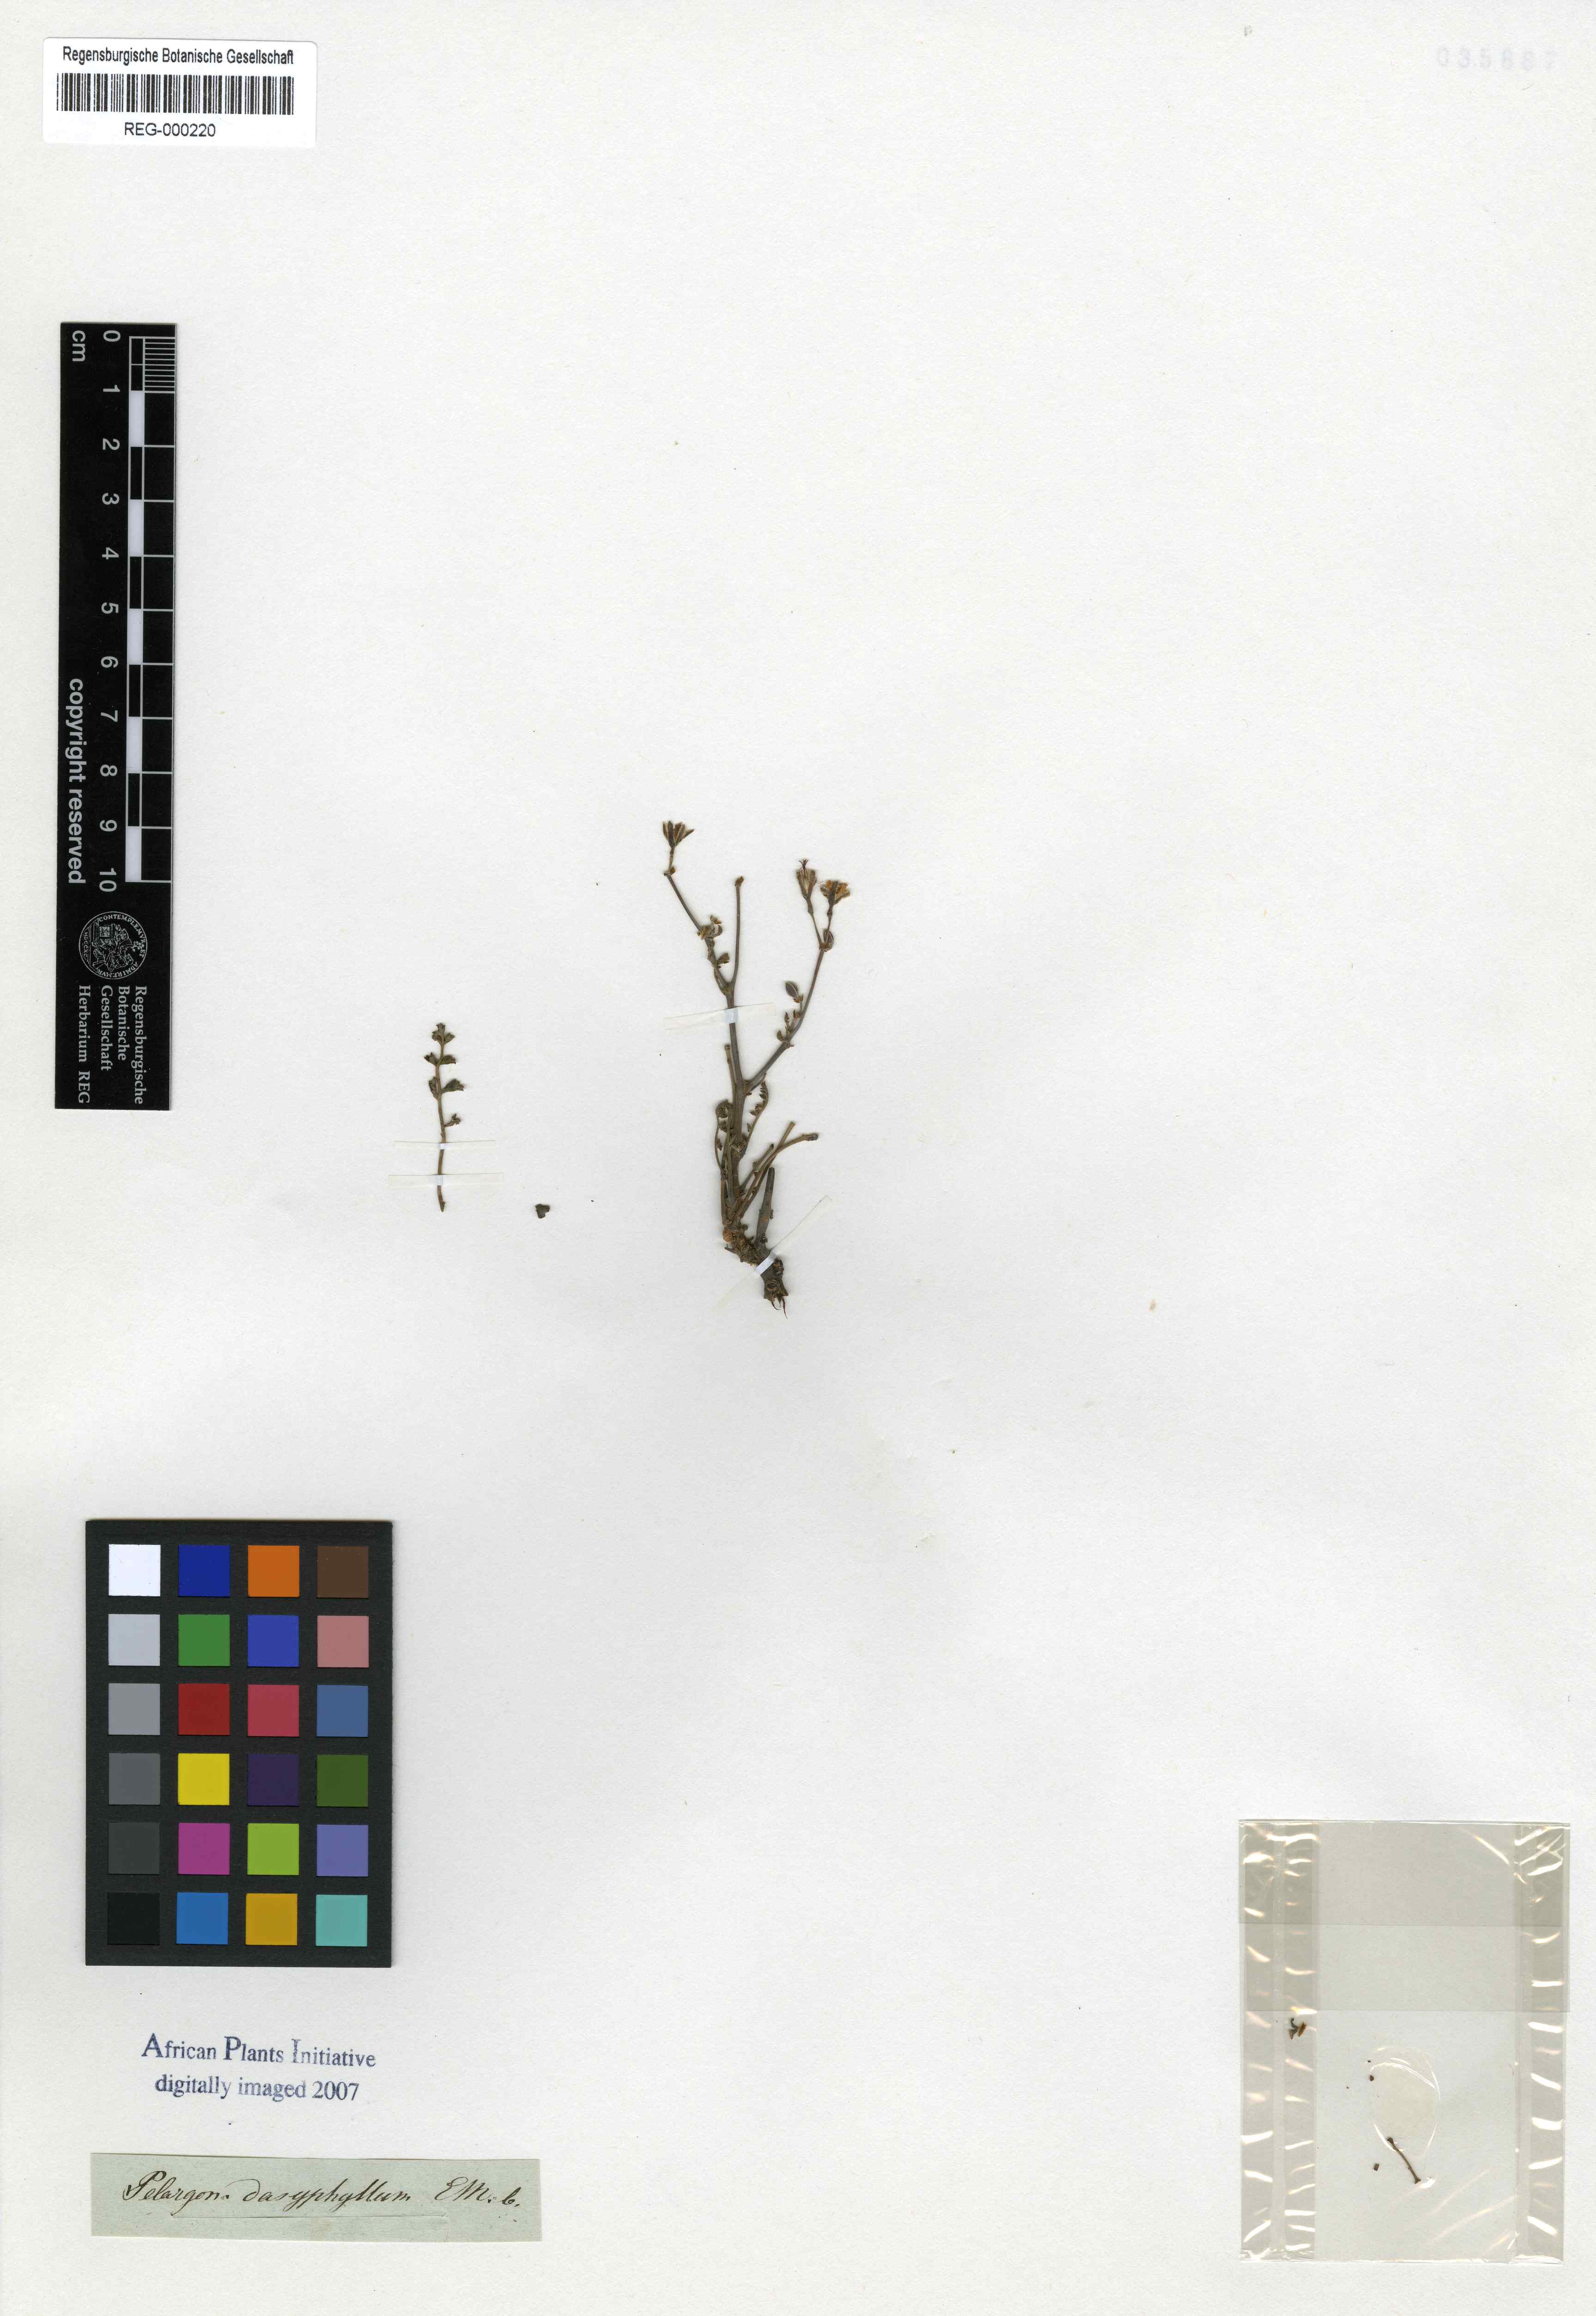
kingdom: Plantae
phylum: Tracheophyta
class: Magnoliopsida
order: Geraniales
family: Geraniaceae
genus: Pelargonium
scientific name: Pelargonium dasyphyllum
